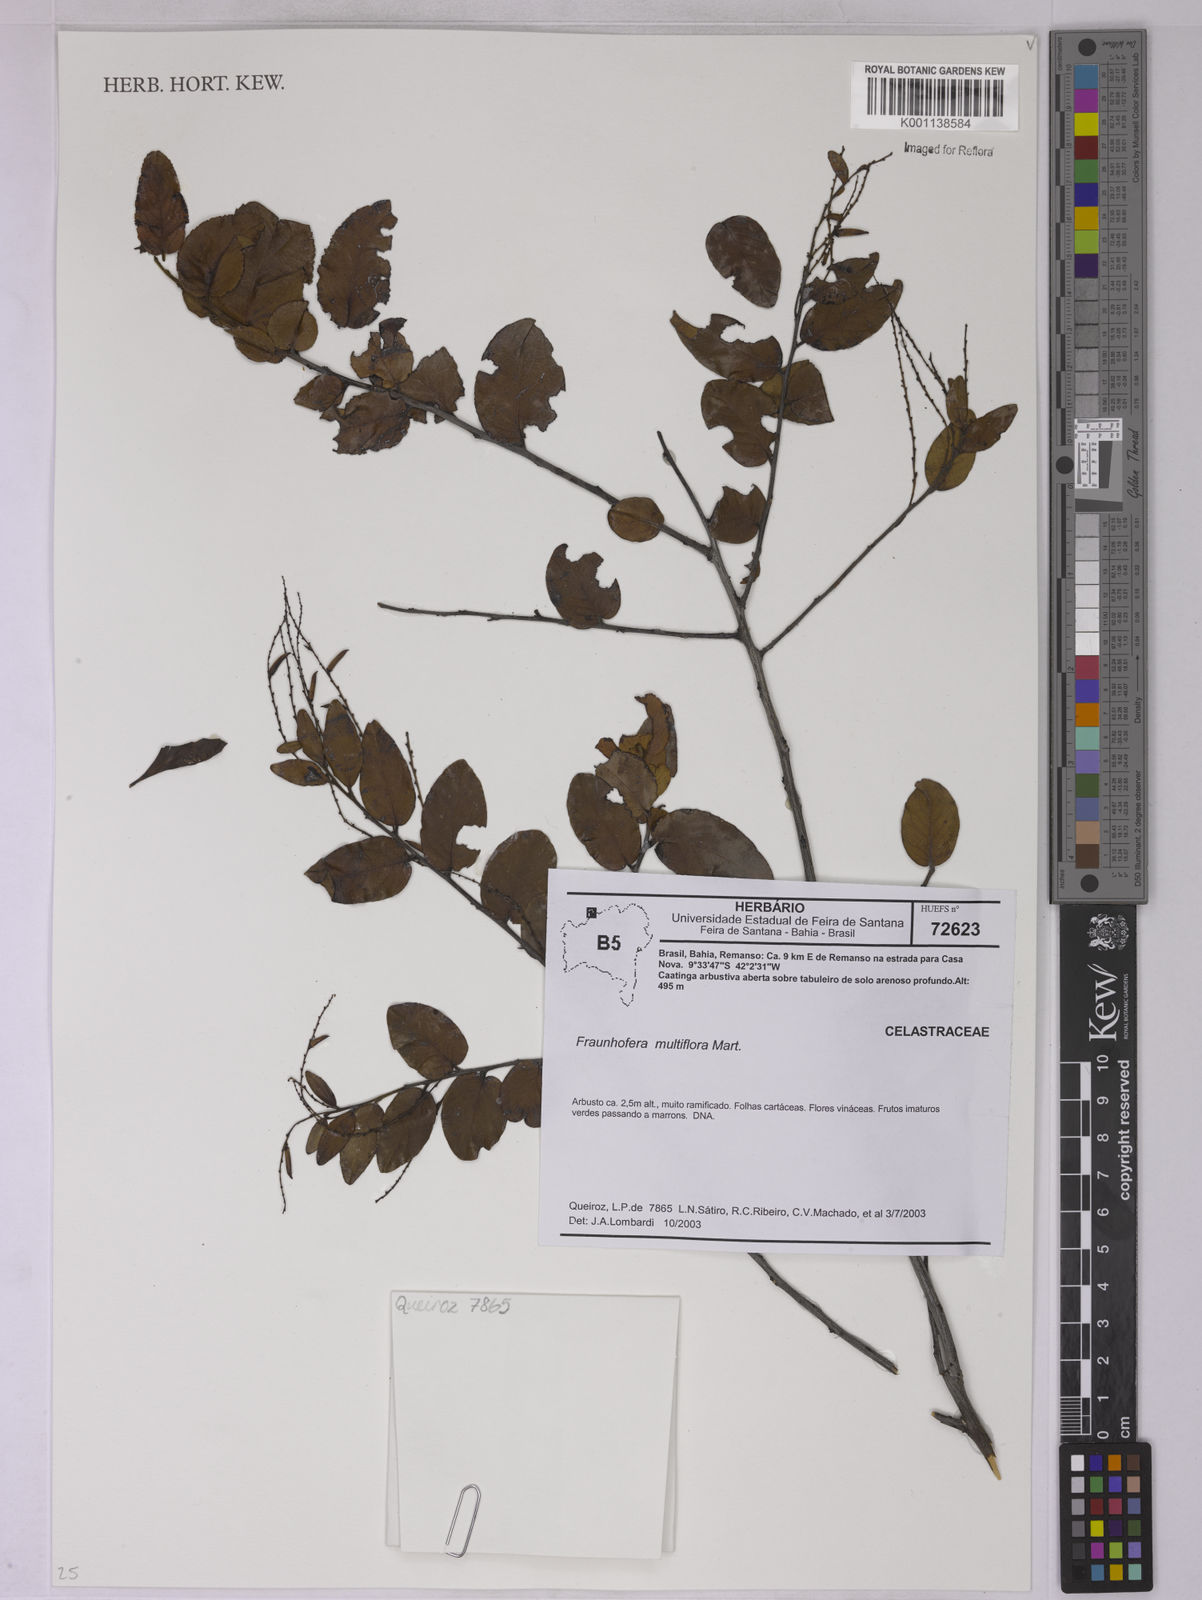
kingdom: Plantae
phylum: Tracheophyta
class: Magnoliopsida
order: Celastrales
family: Celastraceae
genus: Fraunhofera
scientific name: Fraunhofera multiflora
